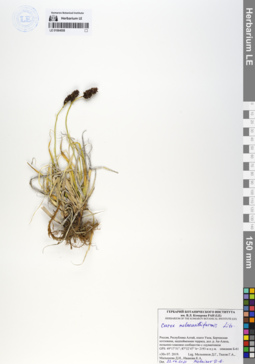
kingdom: Plantae
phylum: Tracheophyta
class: Liliopsida
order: Poales
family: Cyperaceae
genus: Carex
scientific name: Carex melananthiformis
